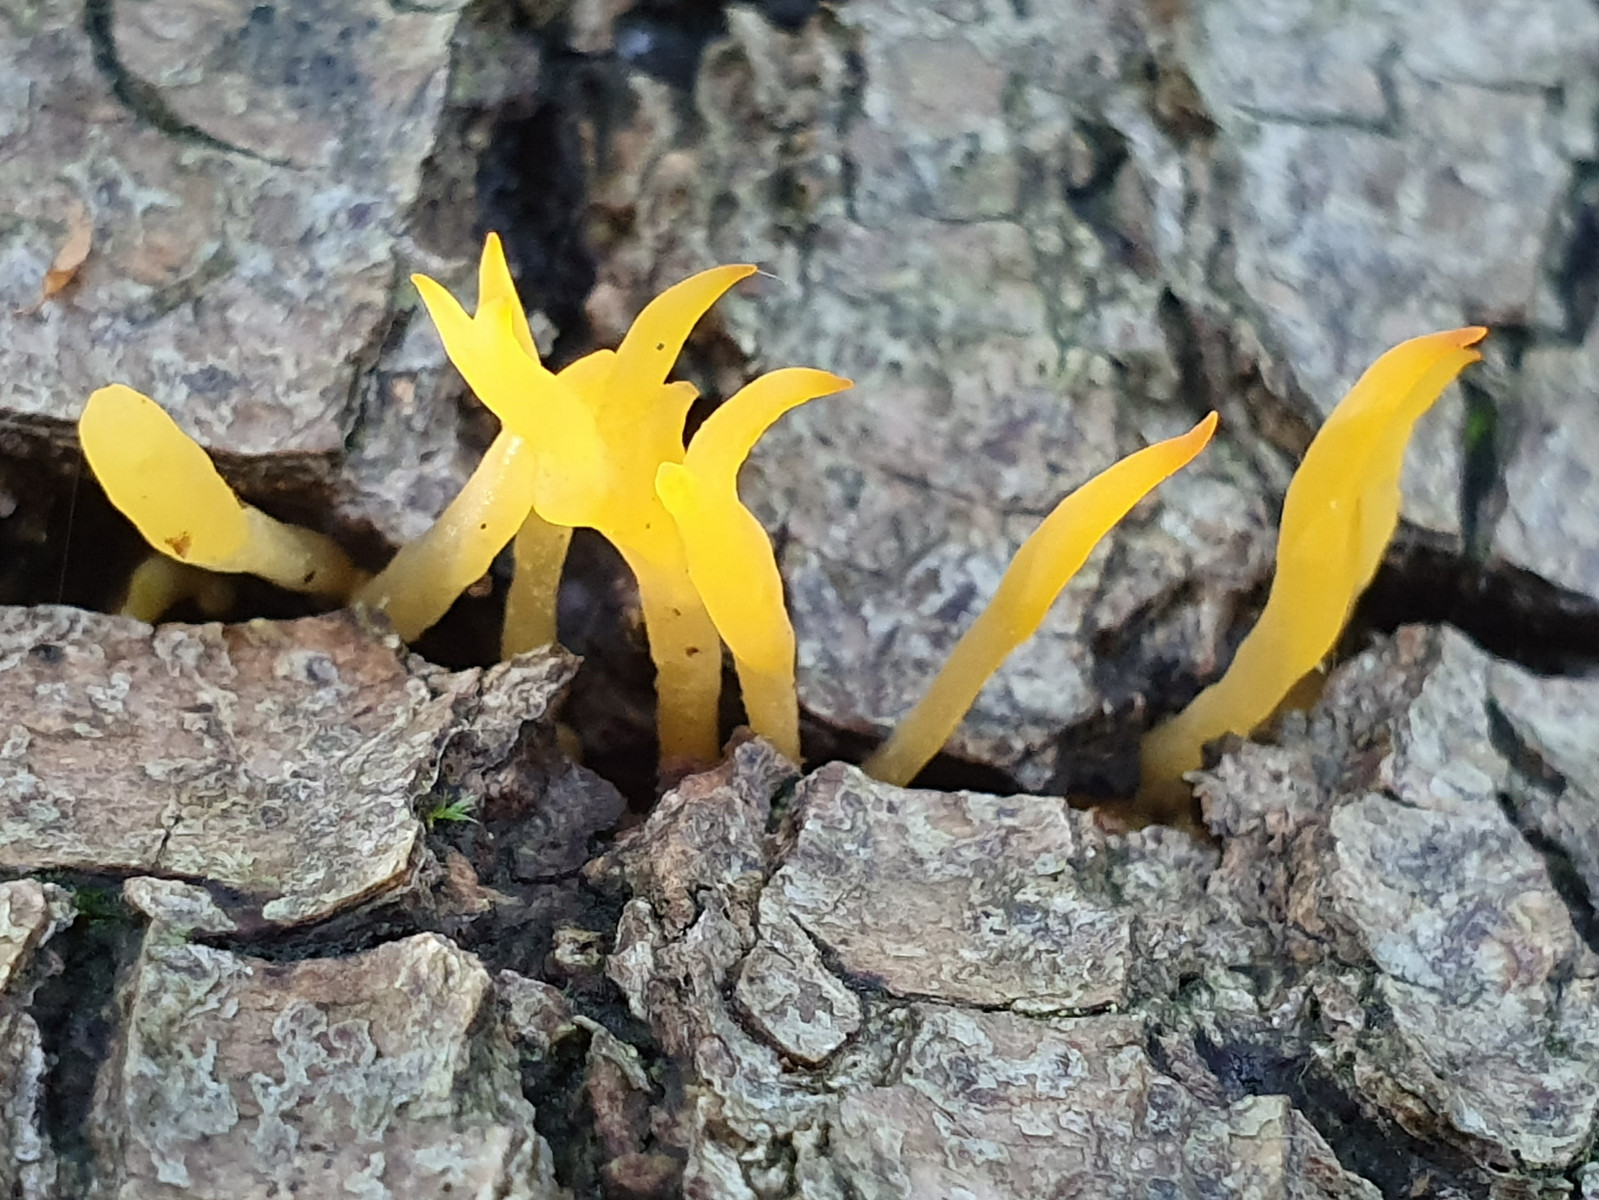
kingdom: Fungi
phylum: Basidiomycota
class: Dacrymycetes
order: Dacrymycetales
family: Dacrymycetaceae
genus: Calocera
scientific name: Calocera cornea
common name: liden guldgaffel
